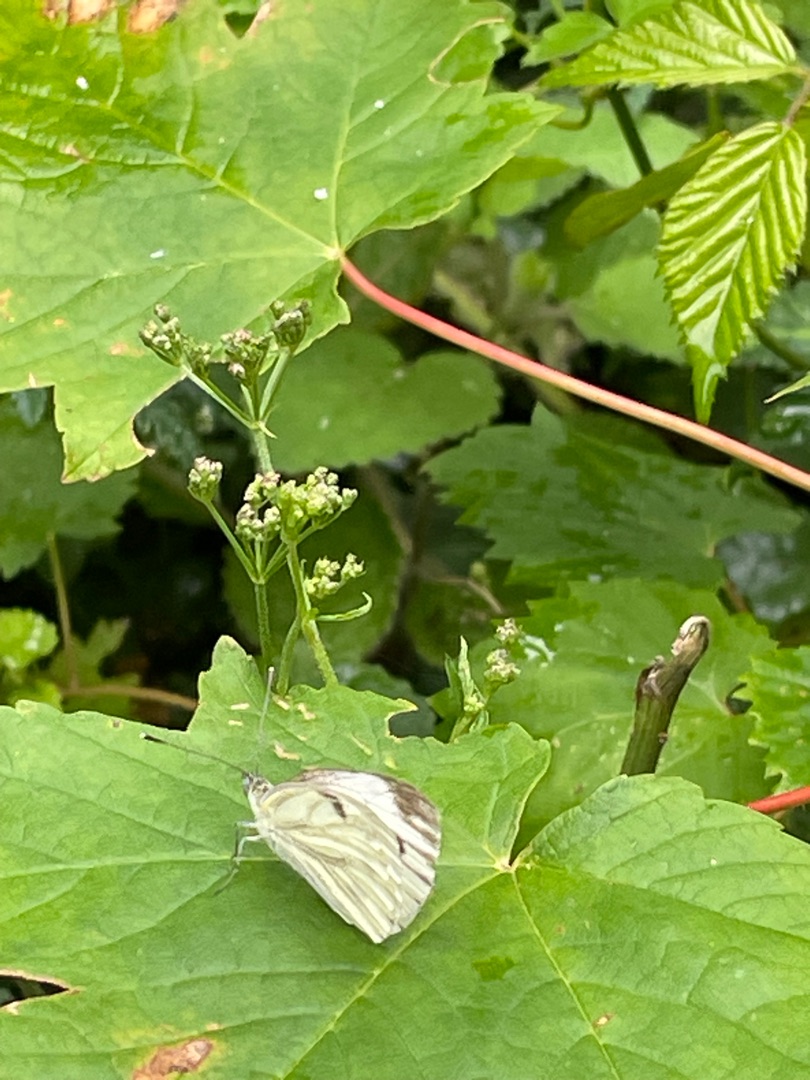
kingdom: Animalia
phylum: Arthropoda
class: Insecta
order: Lepidoptera
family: Pieridae
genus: Pieris
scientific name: Pieris napi
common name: Grønåret kålsommerfugl
